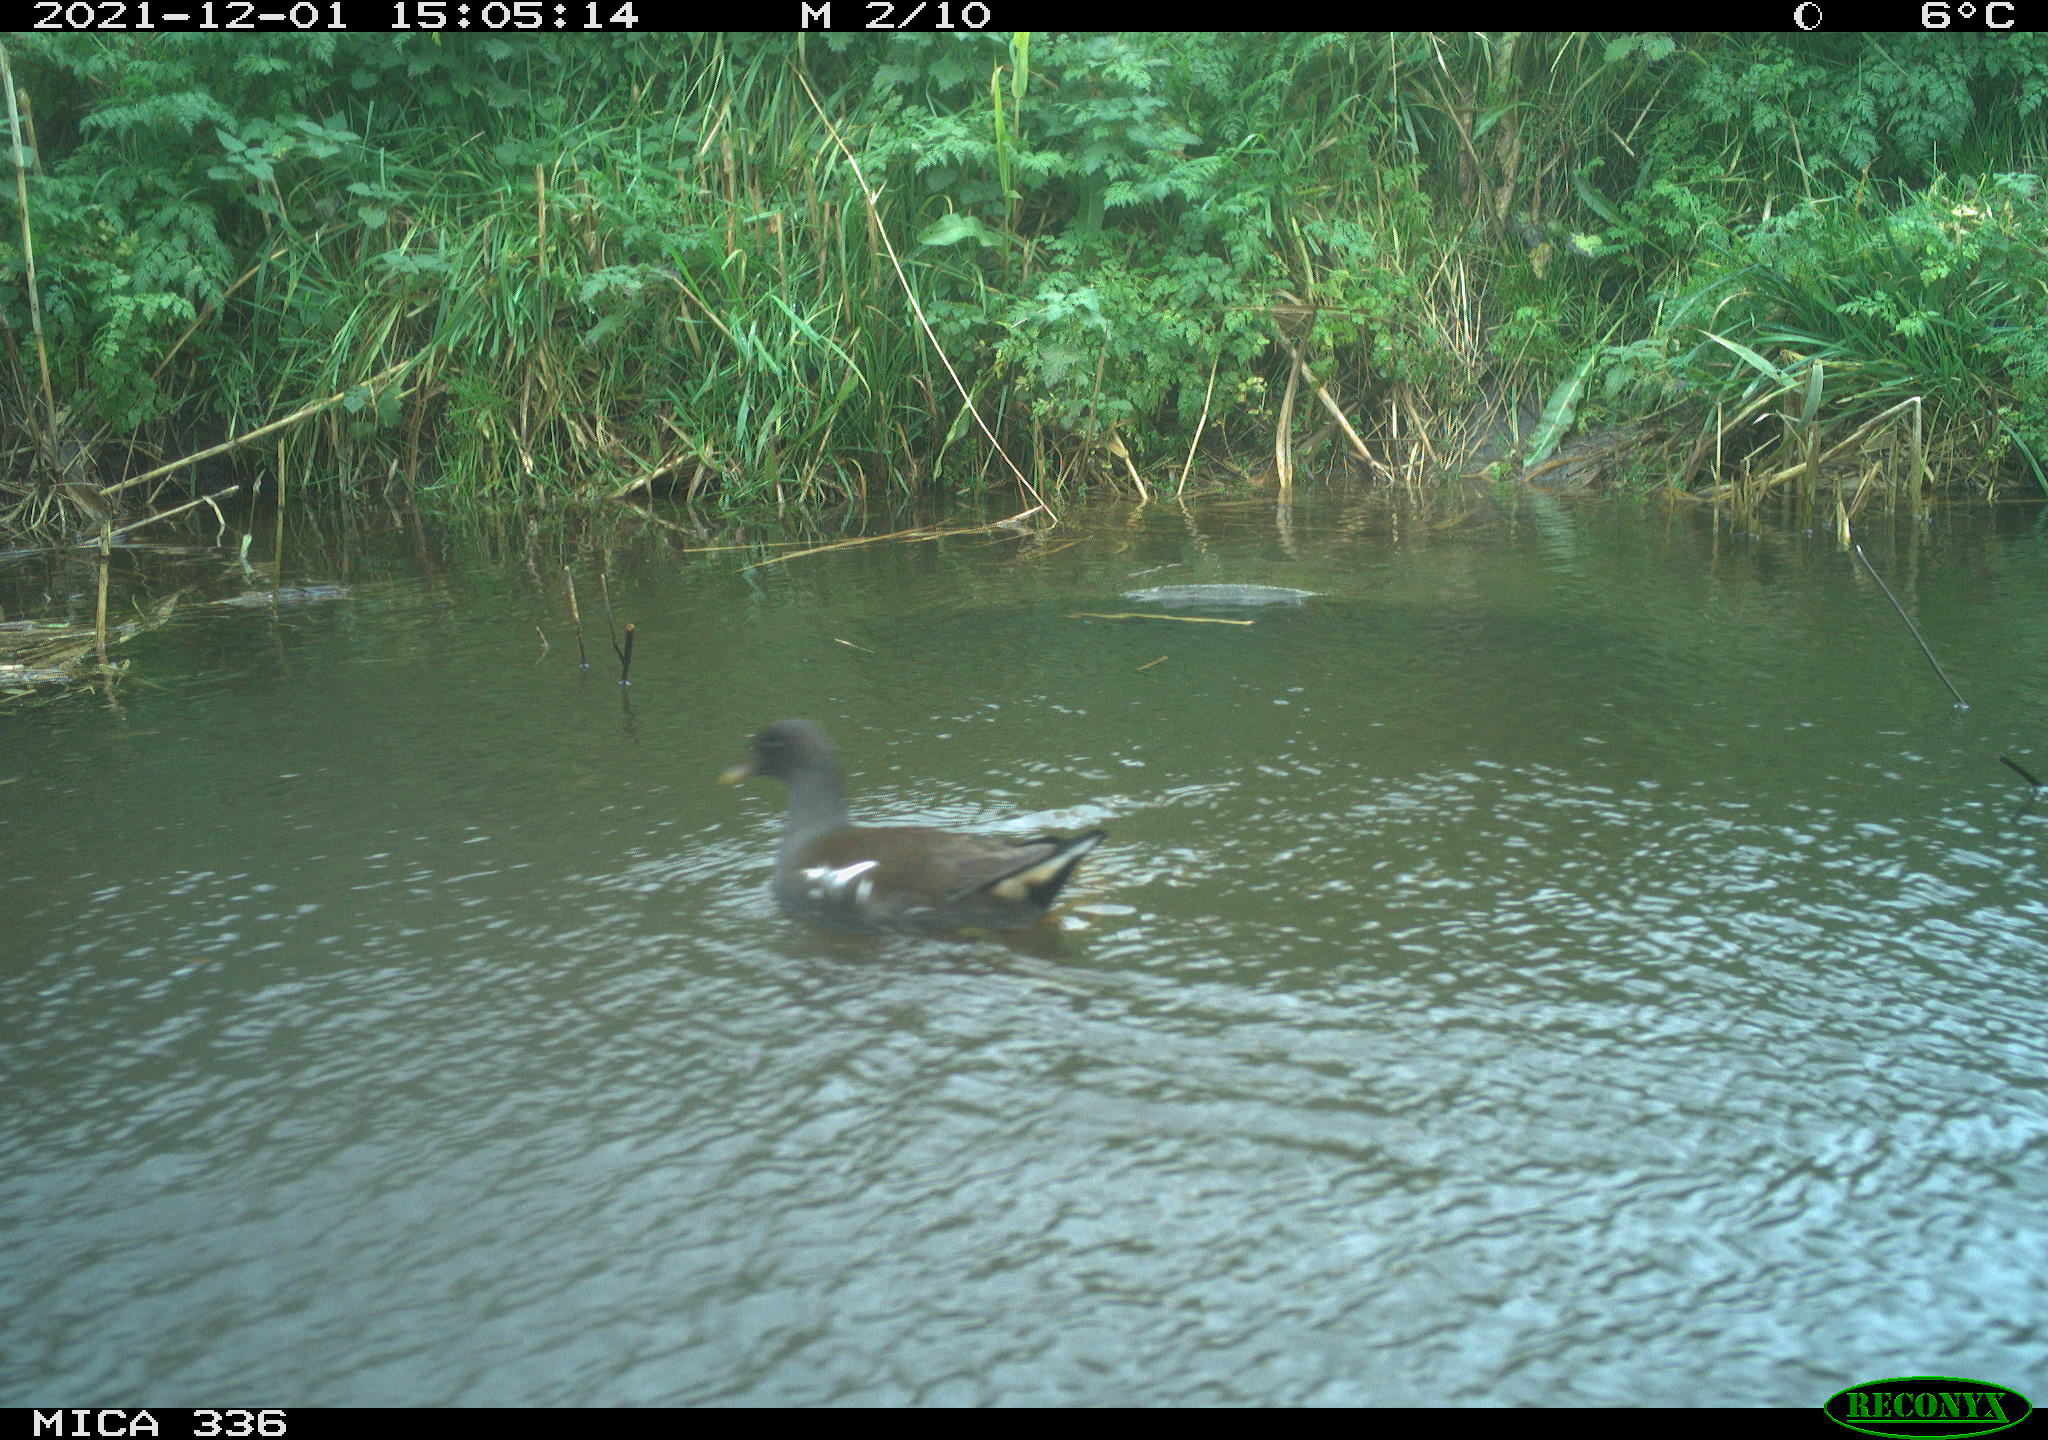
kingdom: Animalia
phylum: Chordata
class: Aves
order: Gruiformes
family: Rallidae
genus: Gallinula
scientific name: Gallinula chloropus
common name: Common moorhen
